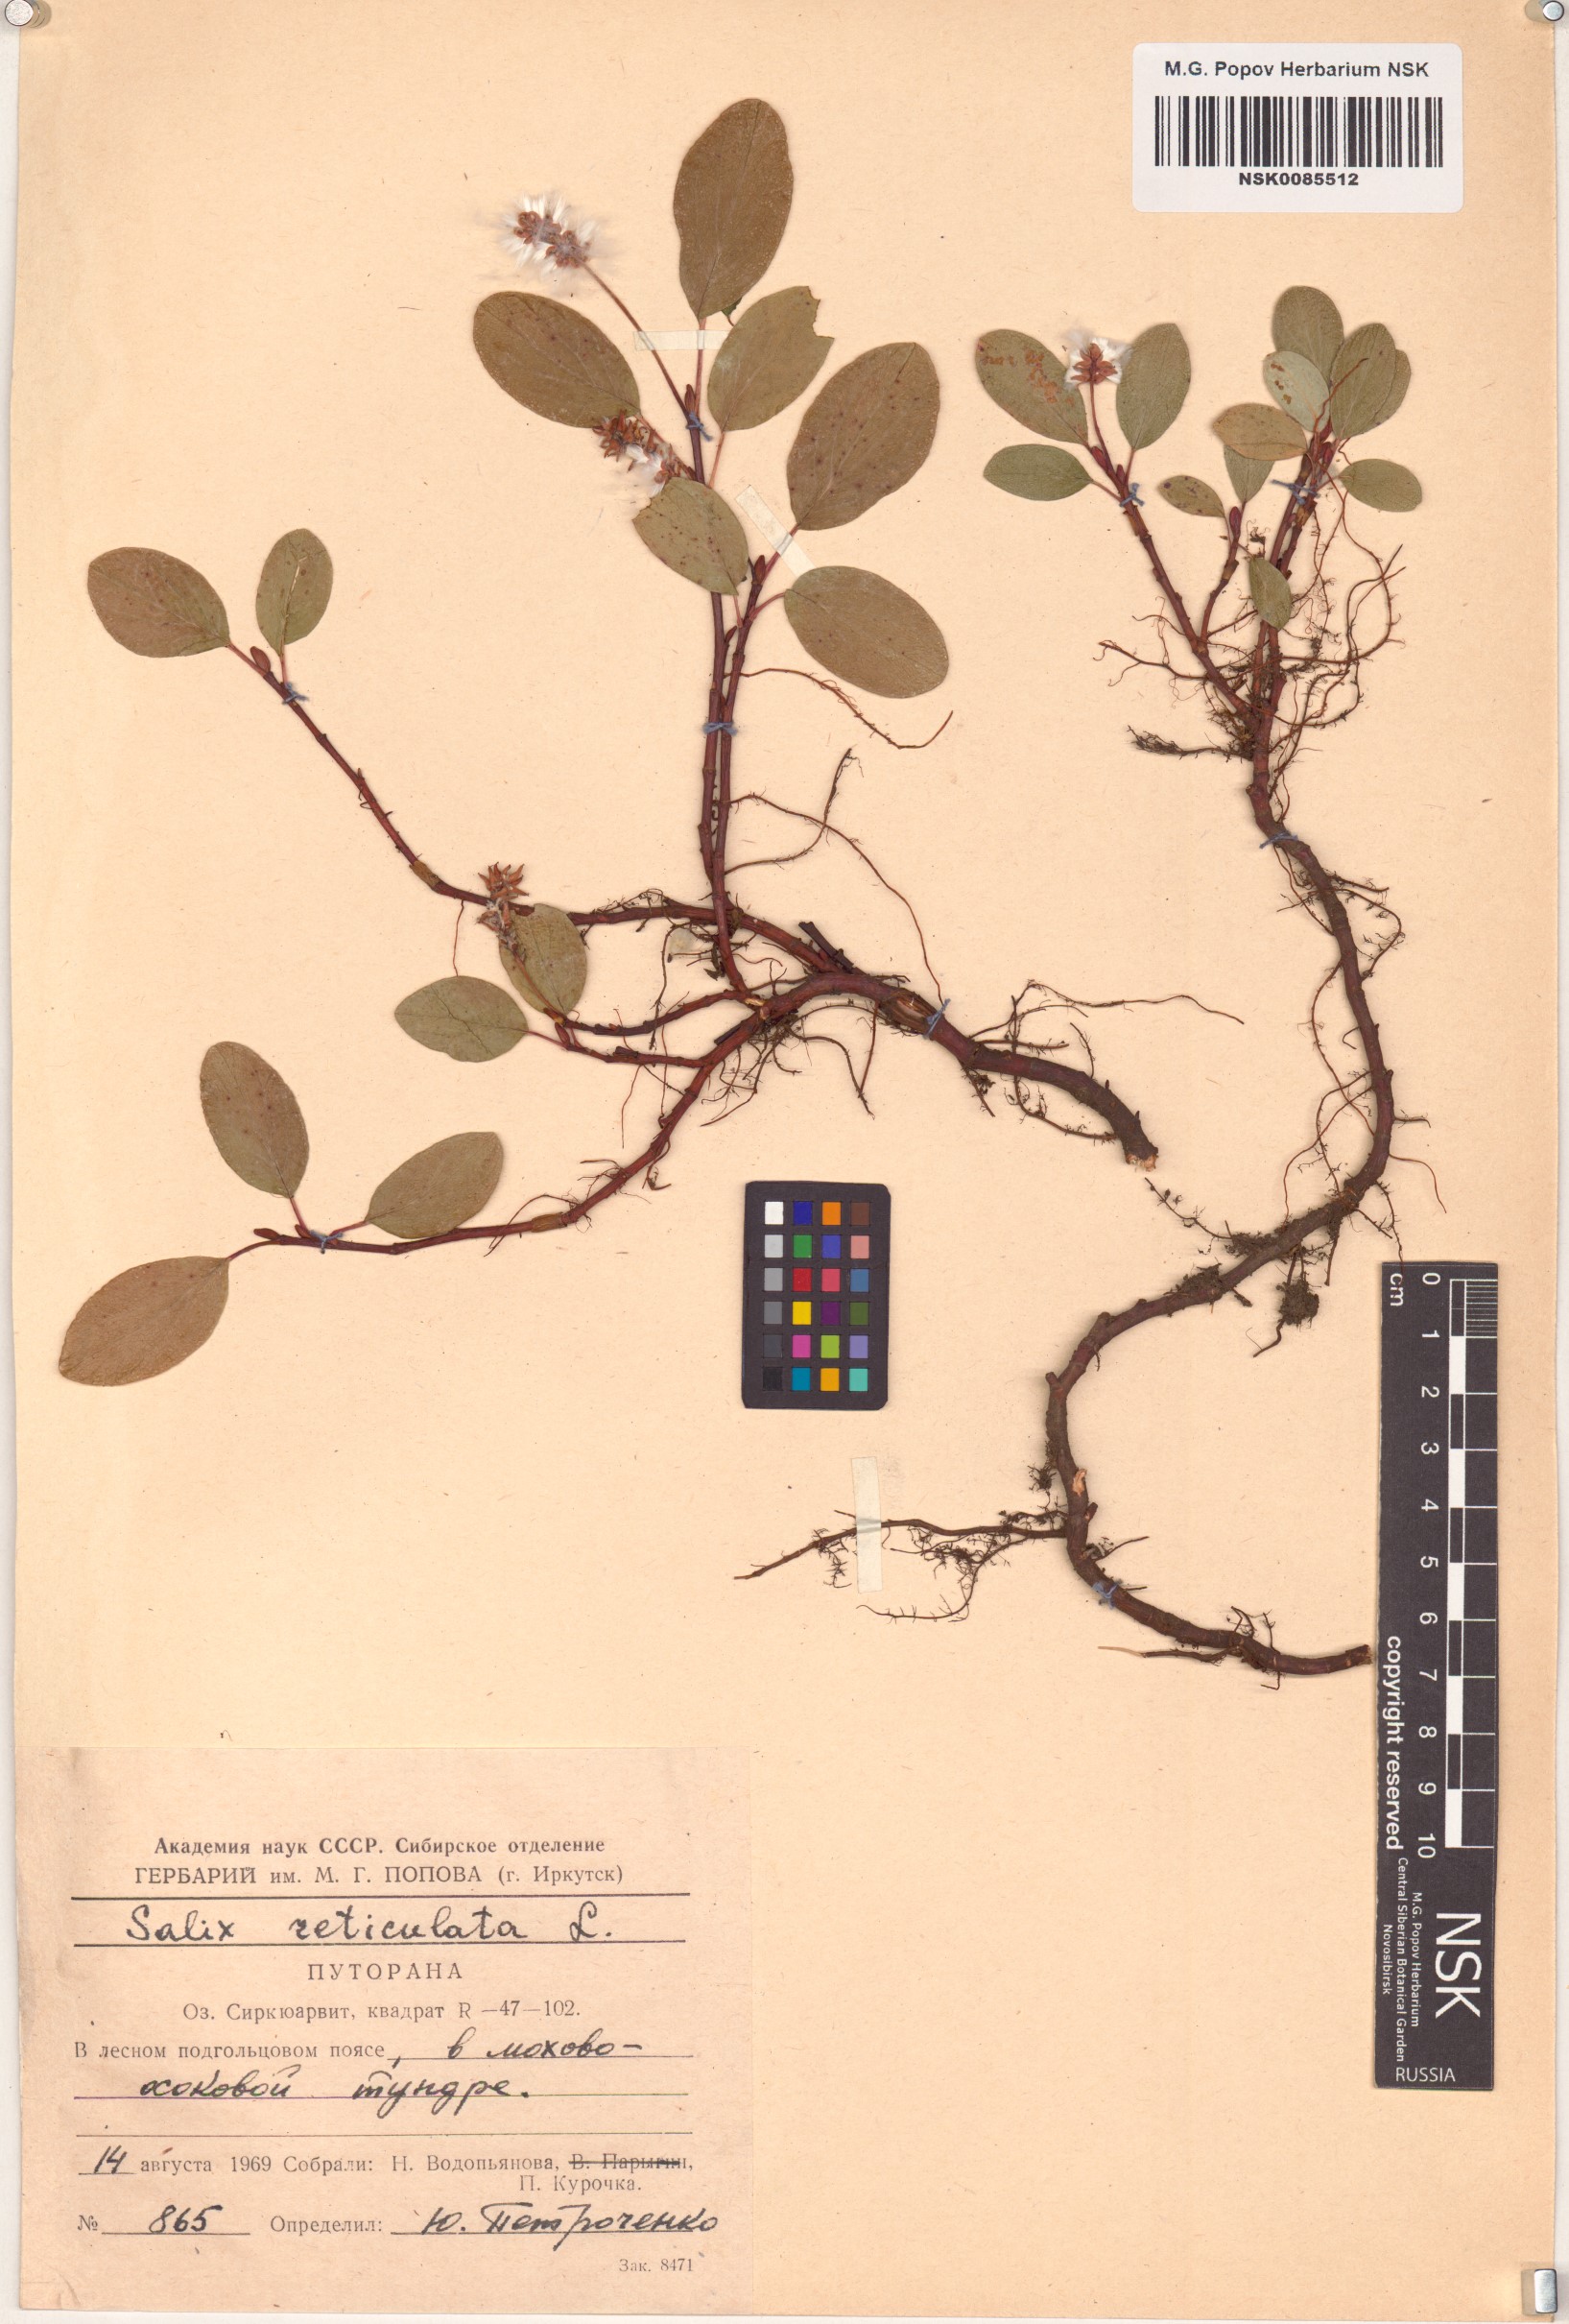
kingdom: Plantae
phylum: Tracheophyta
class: Magnoliopsida
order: Malpighiales
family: Salicaceae
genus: Salix
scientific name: Salix reticulata
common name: Net-leaved willow
